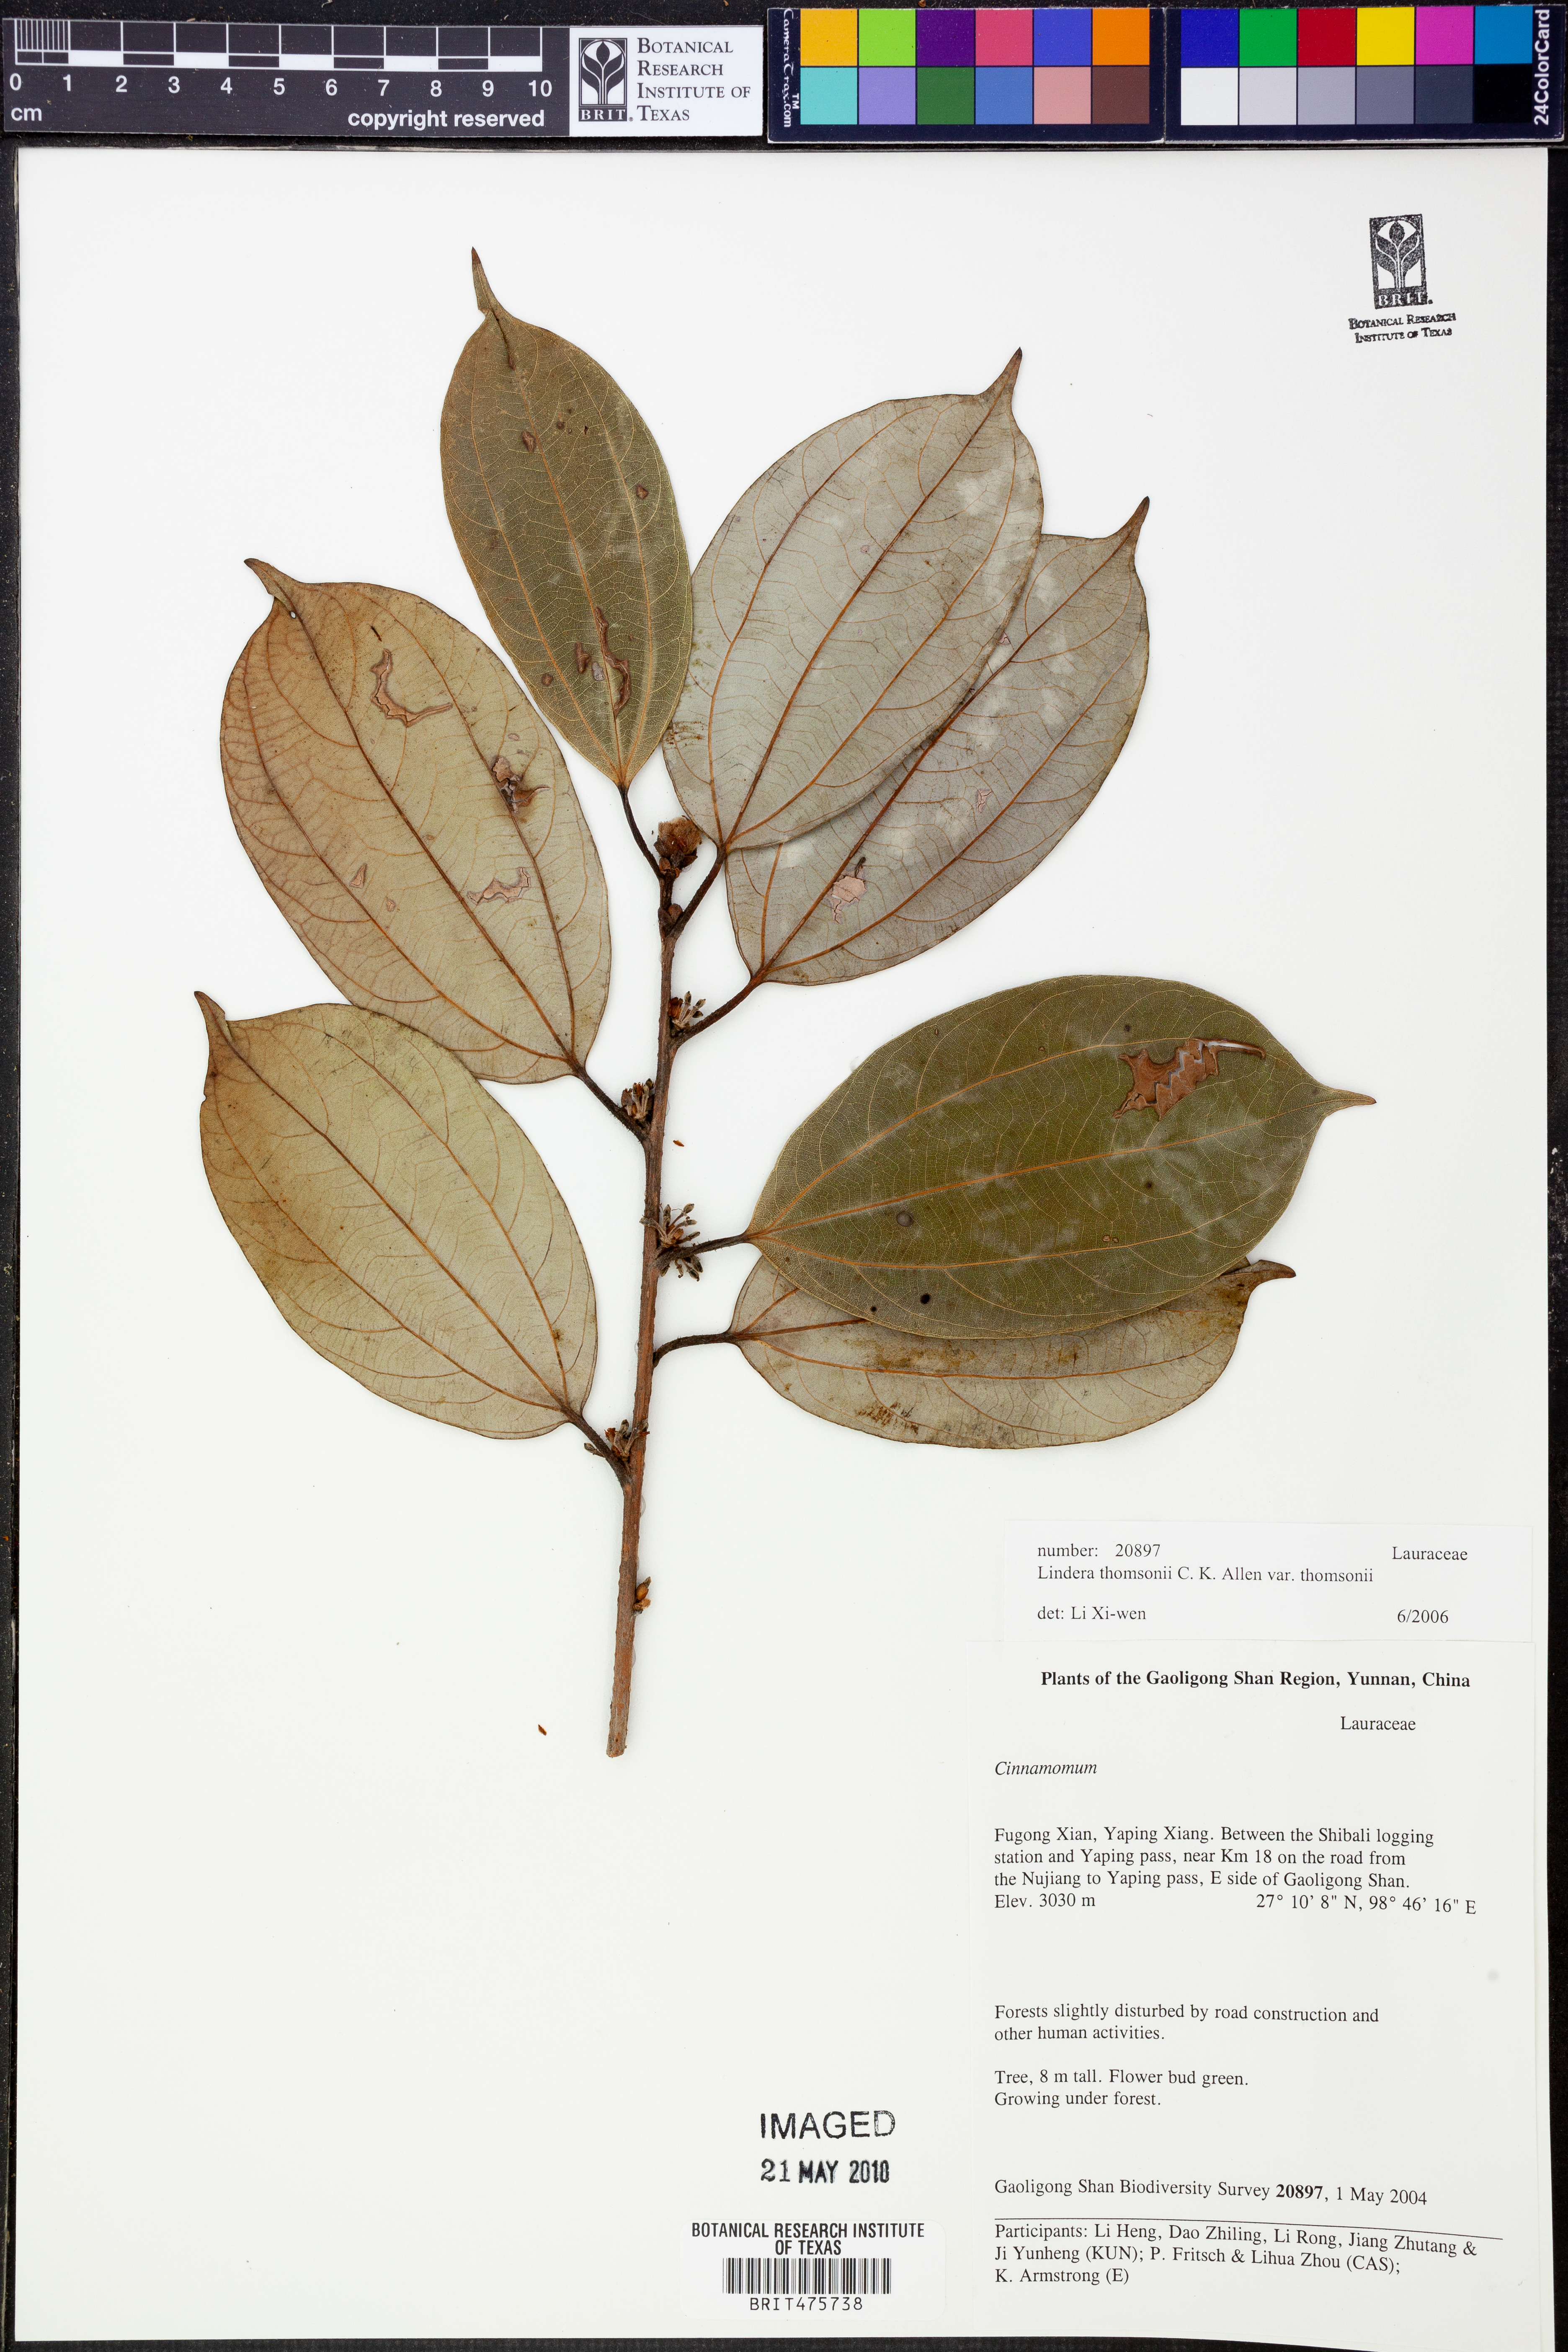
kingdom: Plantae
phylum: Tracheophyta
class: Magnoliopsida
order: Laurales
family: Lauraceae
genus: Lindera
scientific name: Lindera thomsonii
